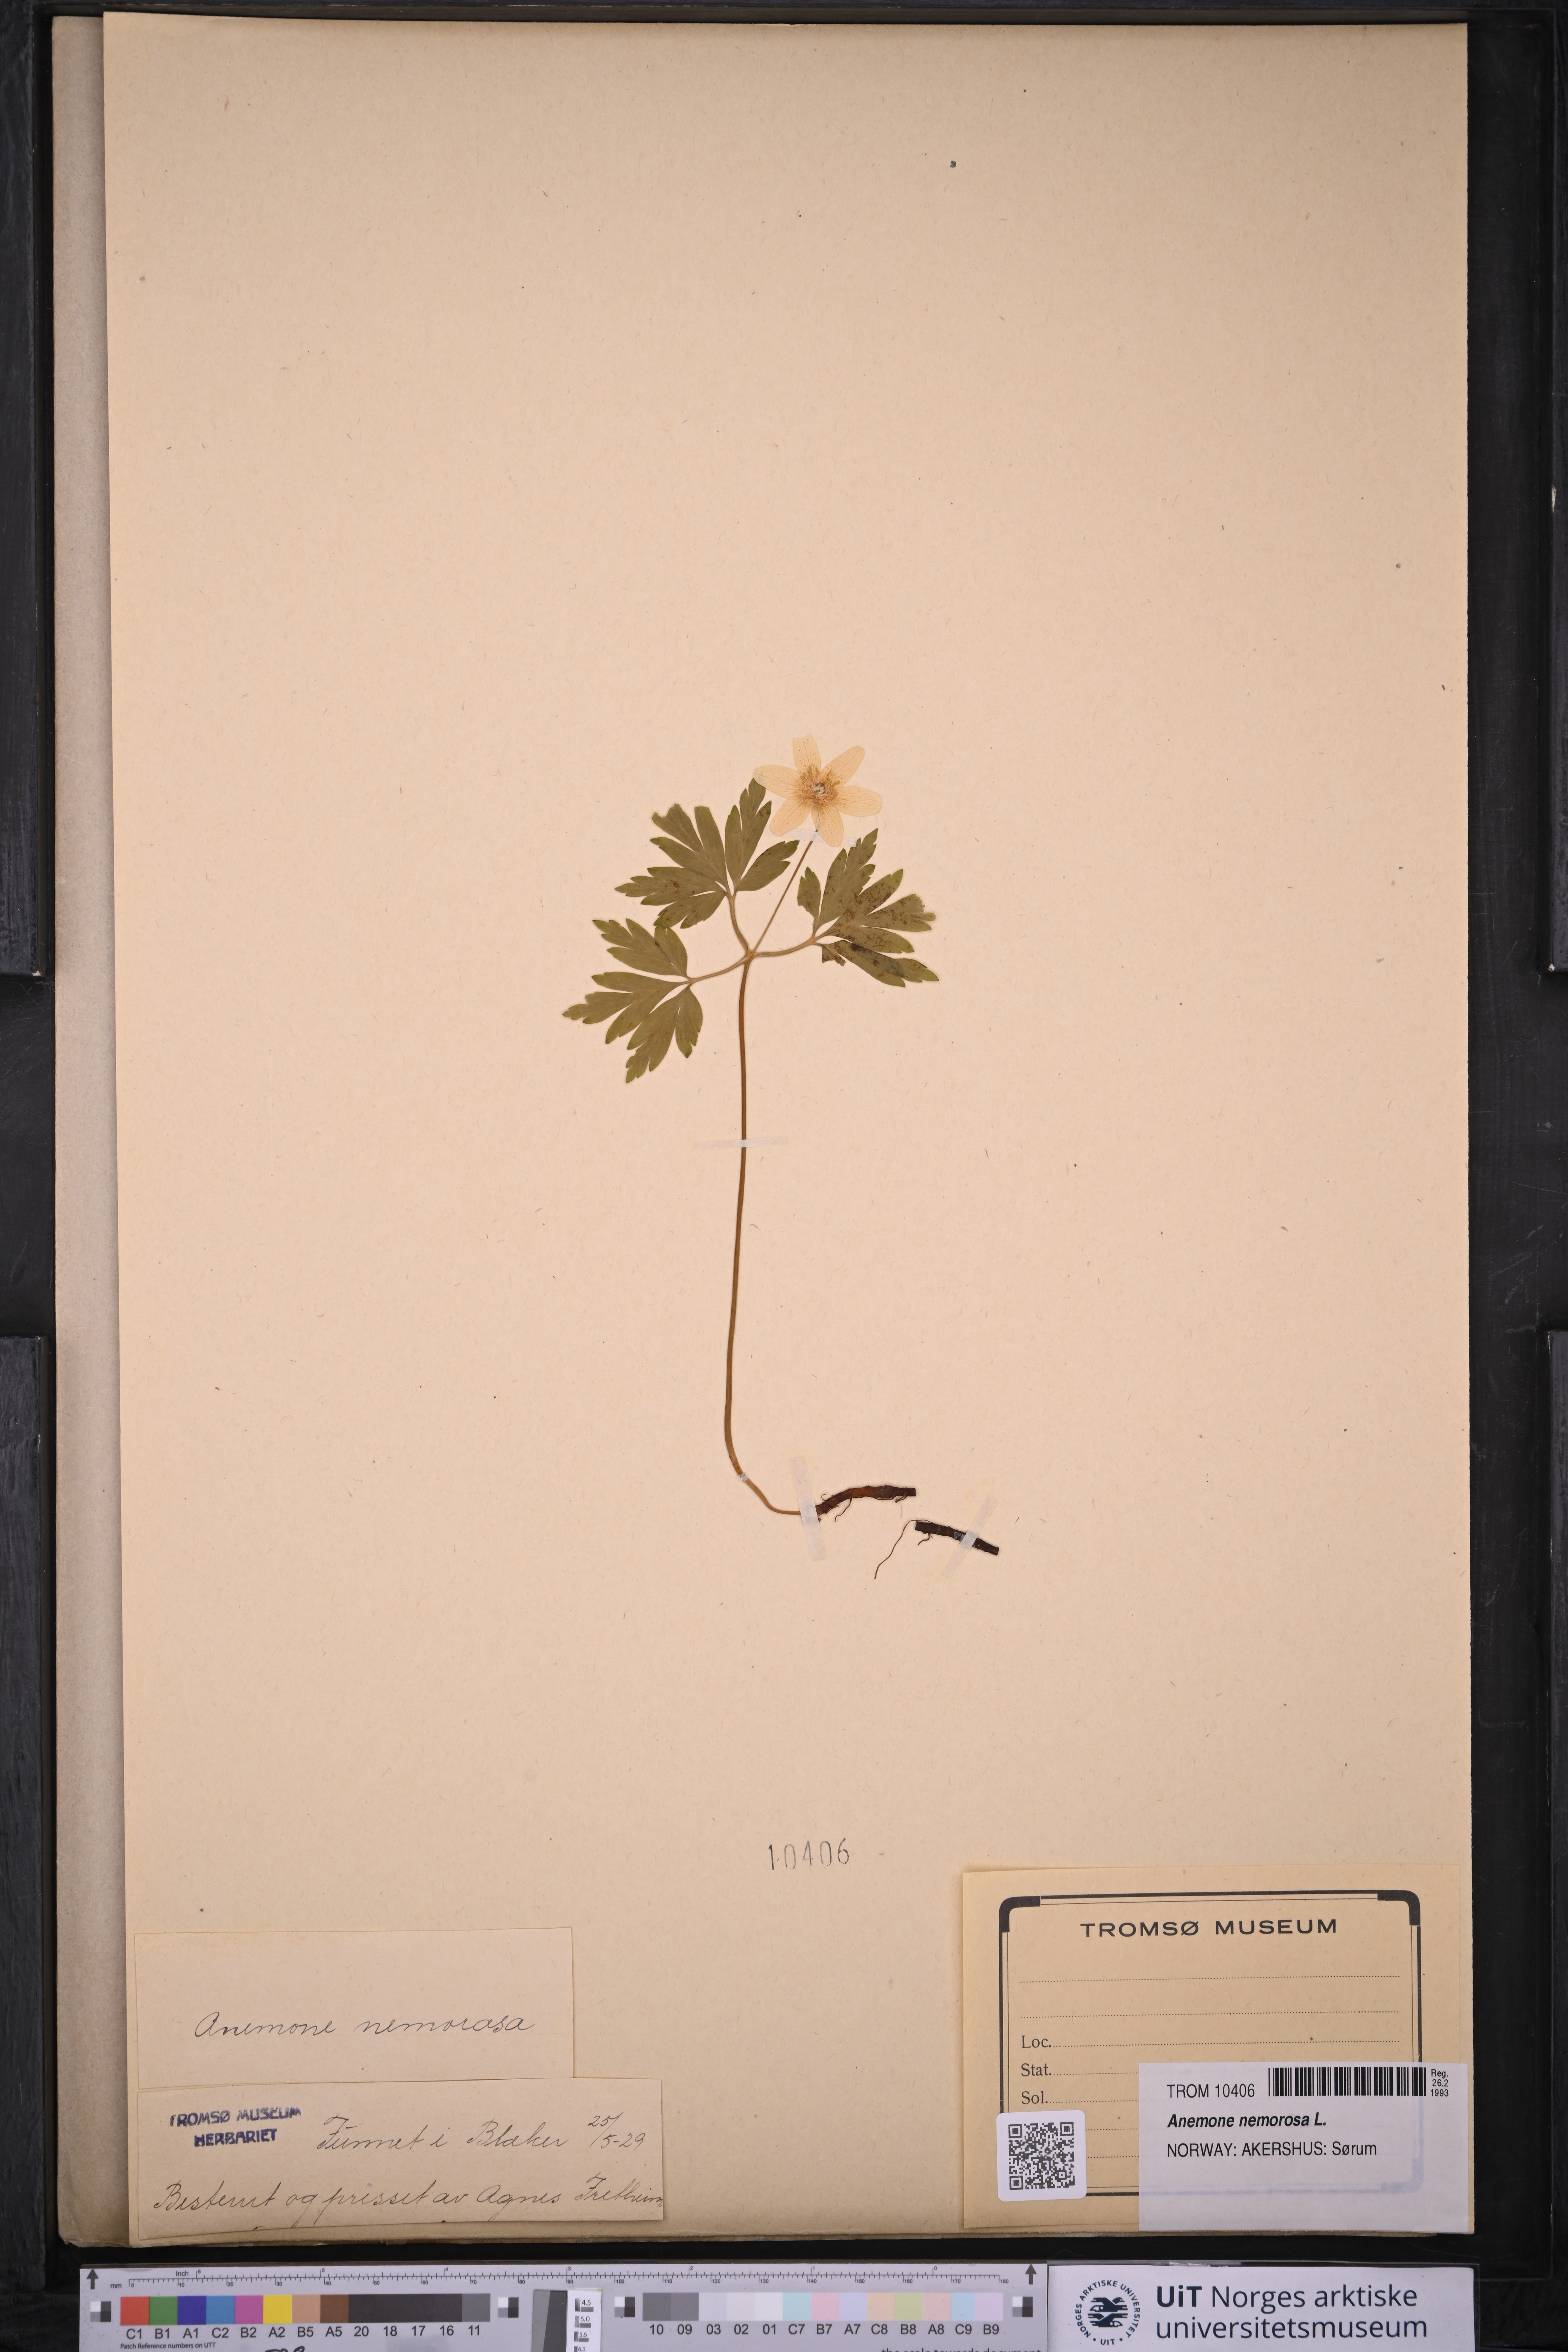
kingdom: Plantae
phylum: Tracheophyta
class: Magnoliopsida
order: Ranunculales
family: Ranunculaceae
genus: Anemone
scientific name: Anemone nemorosa
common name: Wood anemone
